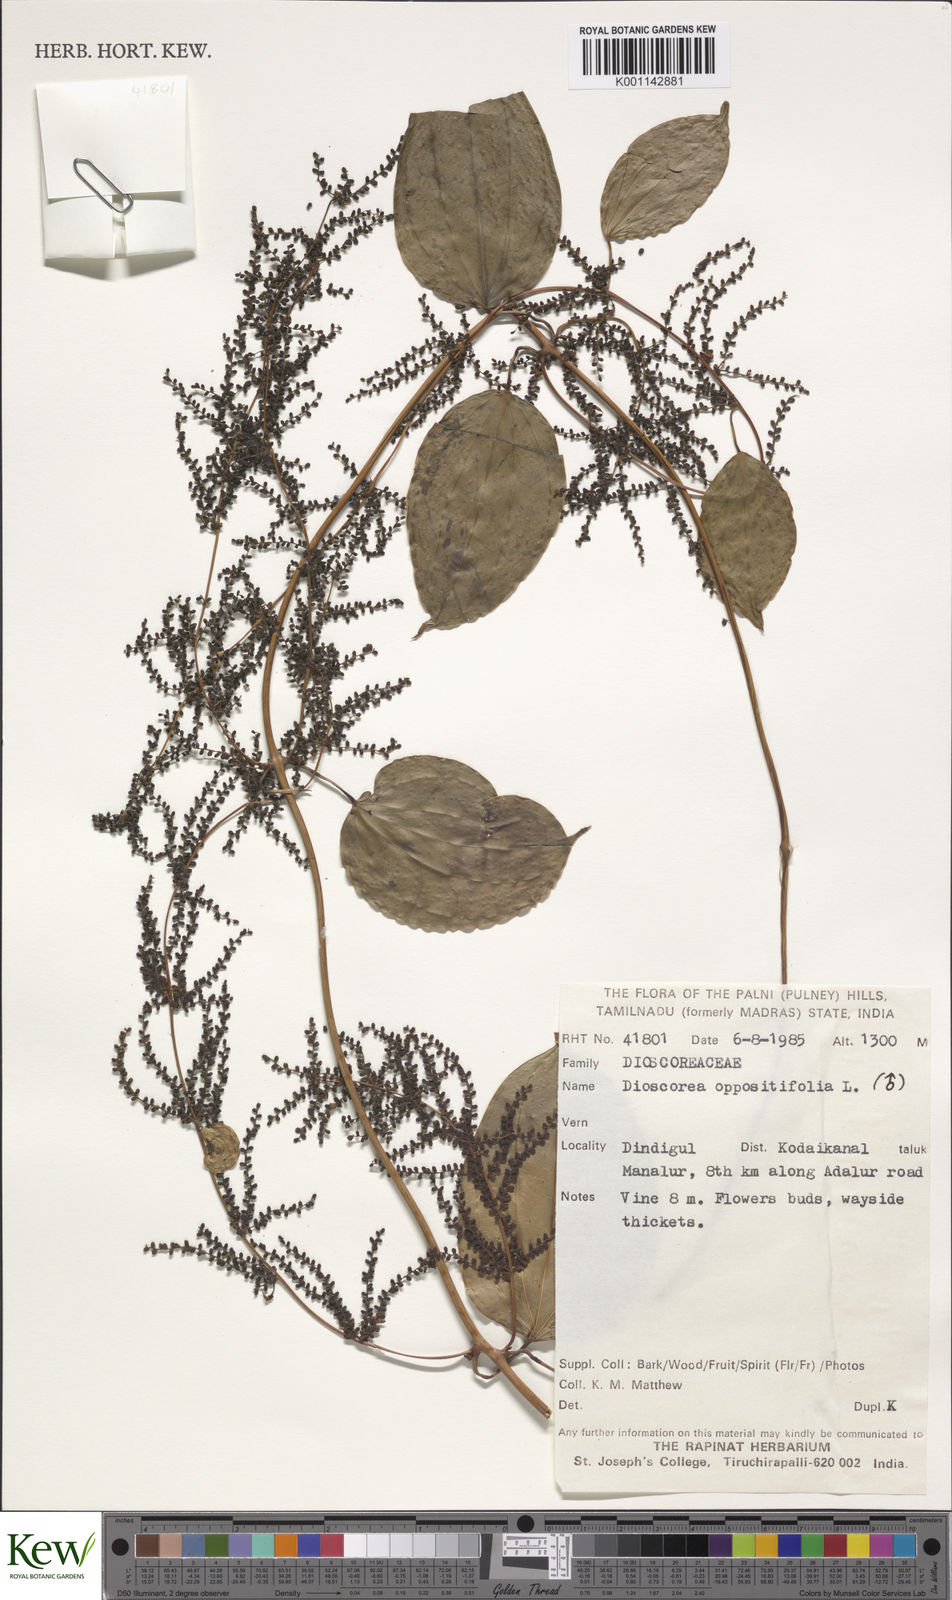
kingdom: Plantae
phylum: Tracheophyta
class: Liliopsida
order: Dioscoreales
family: Dioscoreaceae
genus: Dioscorea
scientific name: Dioscorea oppositifolia
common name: Chinese yam
